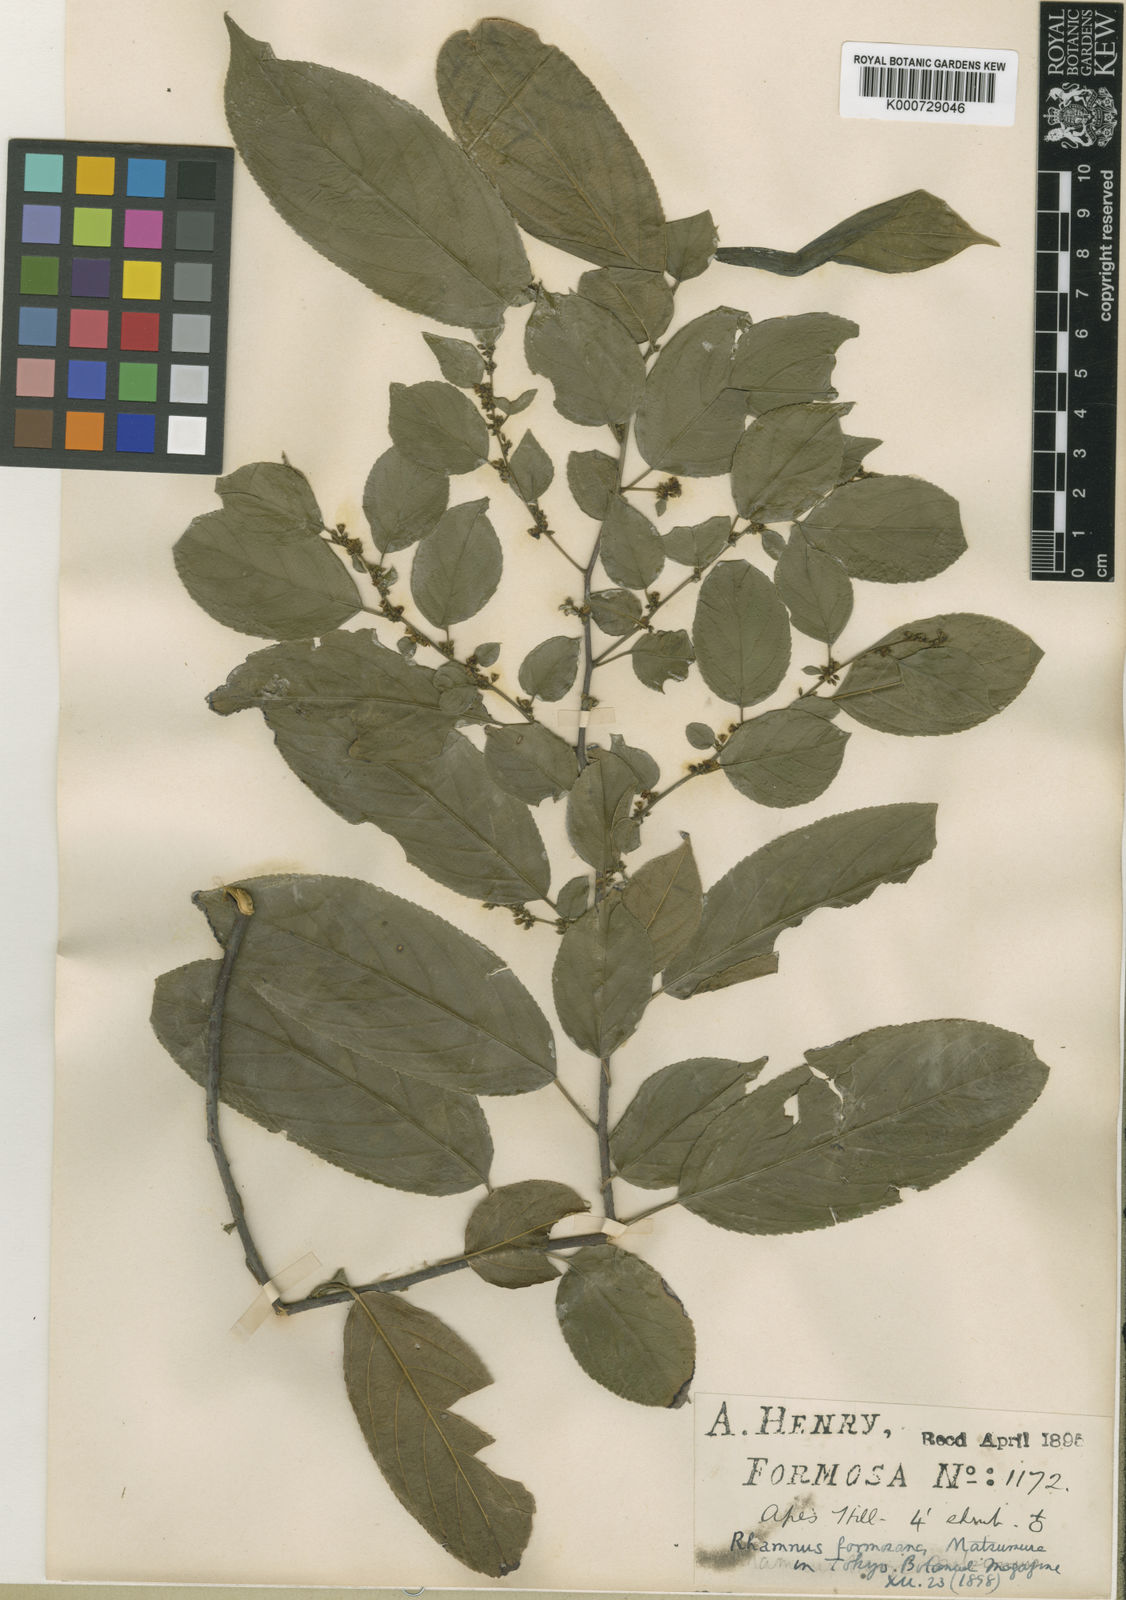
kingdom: Plantae
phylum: Tracheophyta
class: Magnoliopsida
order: Rosales
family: Rhamnaceae
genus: Rhamnus
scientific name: Rhamnus formosana
